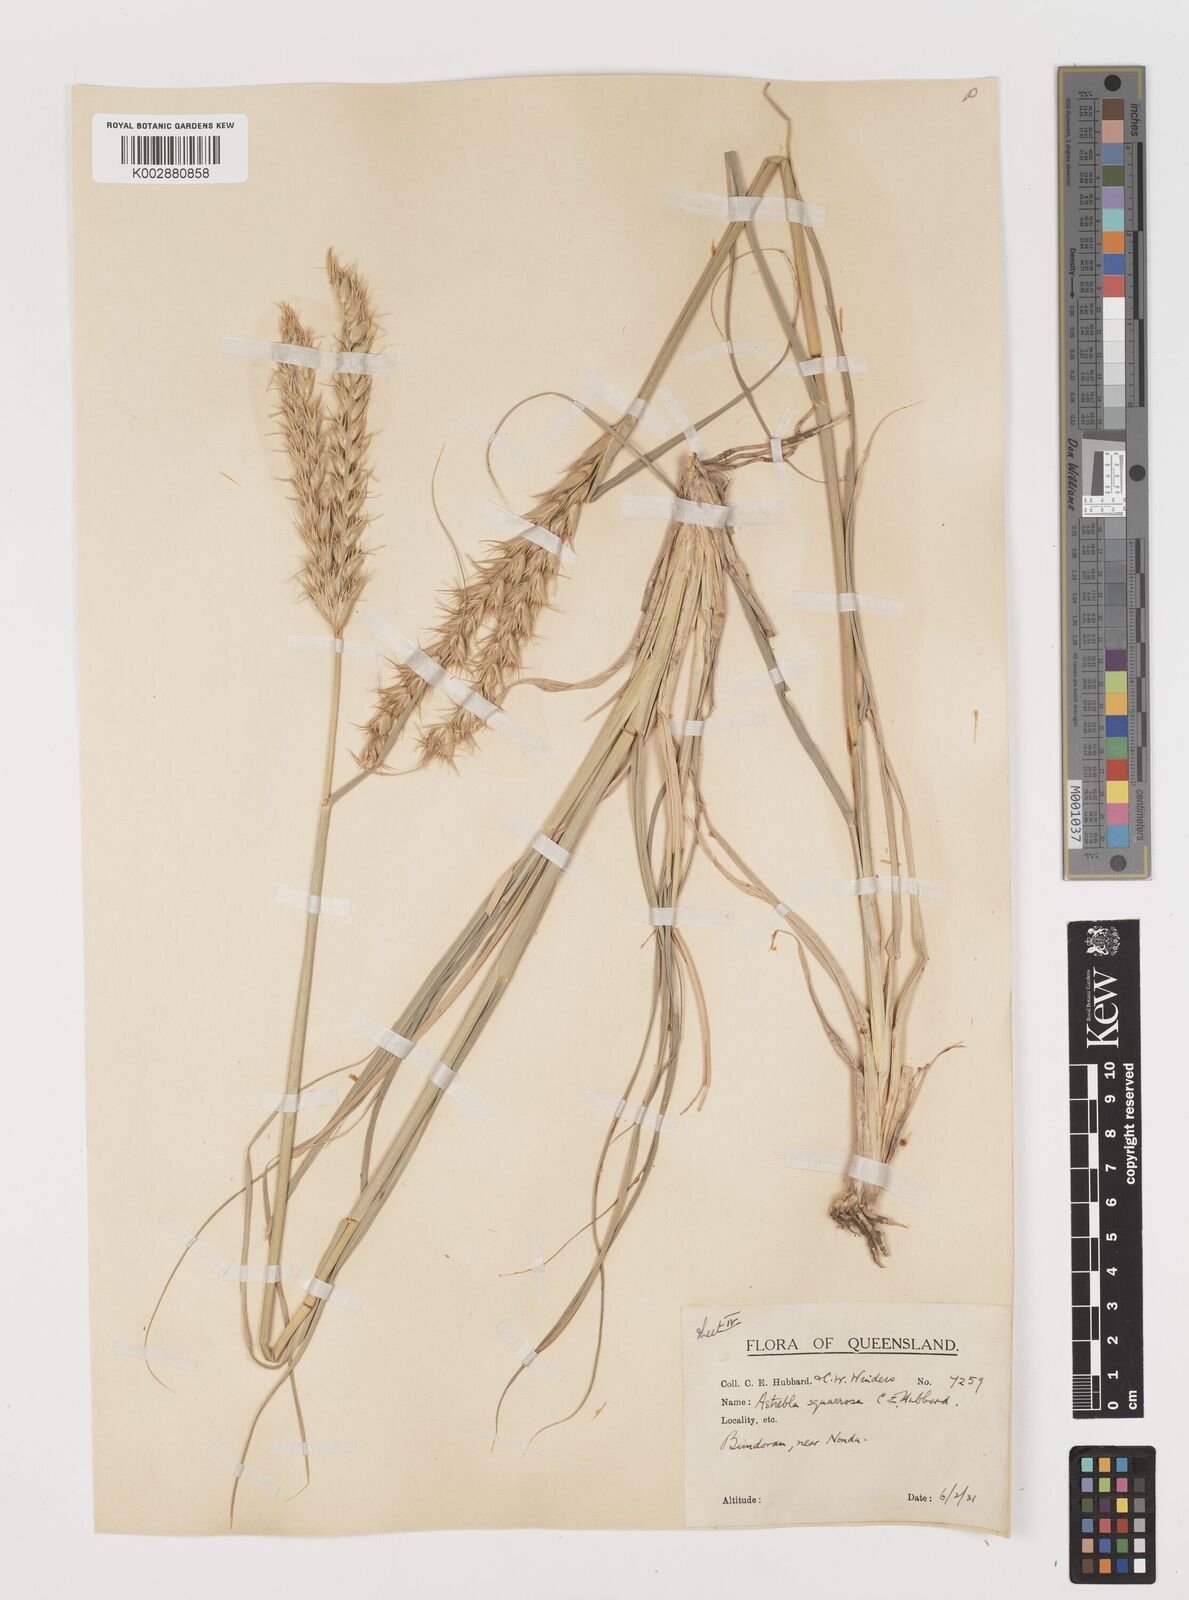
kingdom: Plantae
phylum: Tracheophyta
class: Liliopsida
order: Poales
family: Poaceae
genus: Astrebla
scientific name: Astrebla squarrosa
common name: Wheat-ear mitchell grass
